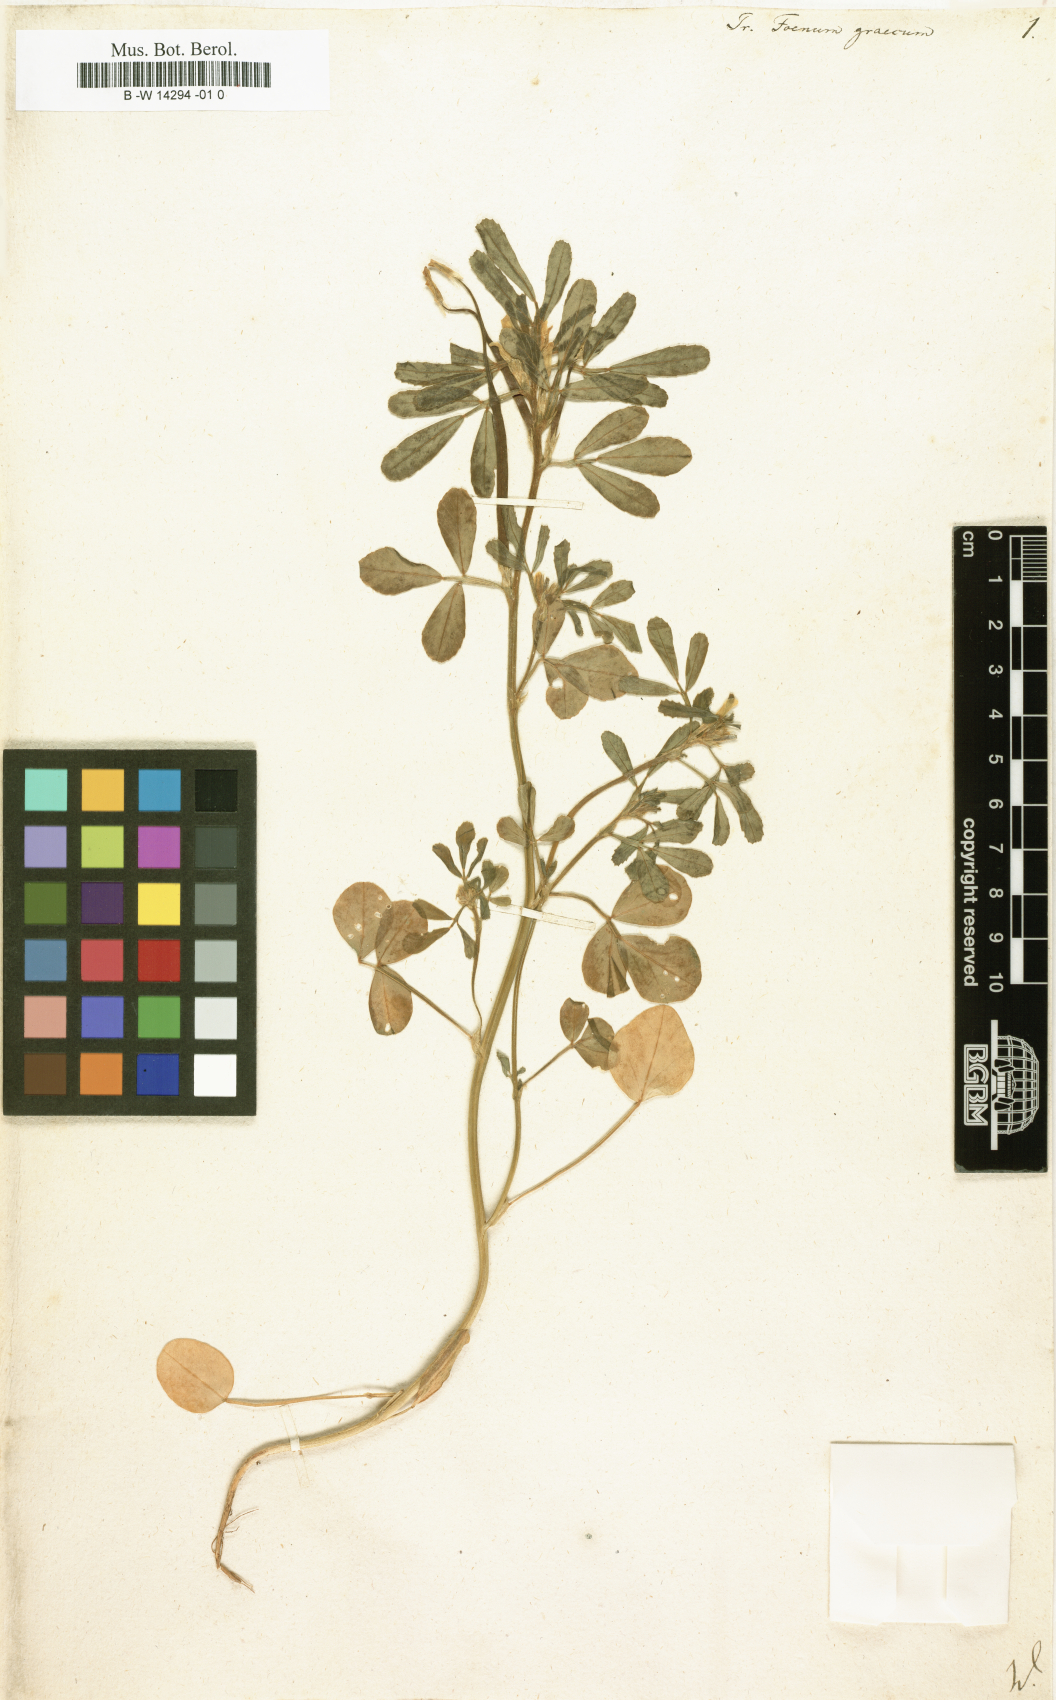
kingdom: Plantae
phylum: Tracheophyta
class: Magnoliopsida
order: Fabales
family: Fabaceae
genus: Trigonella
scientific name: Trigonella foenum-graecum
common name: Fenugreek
